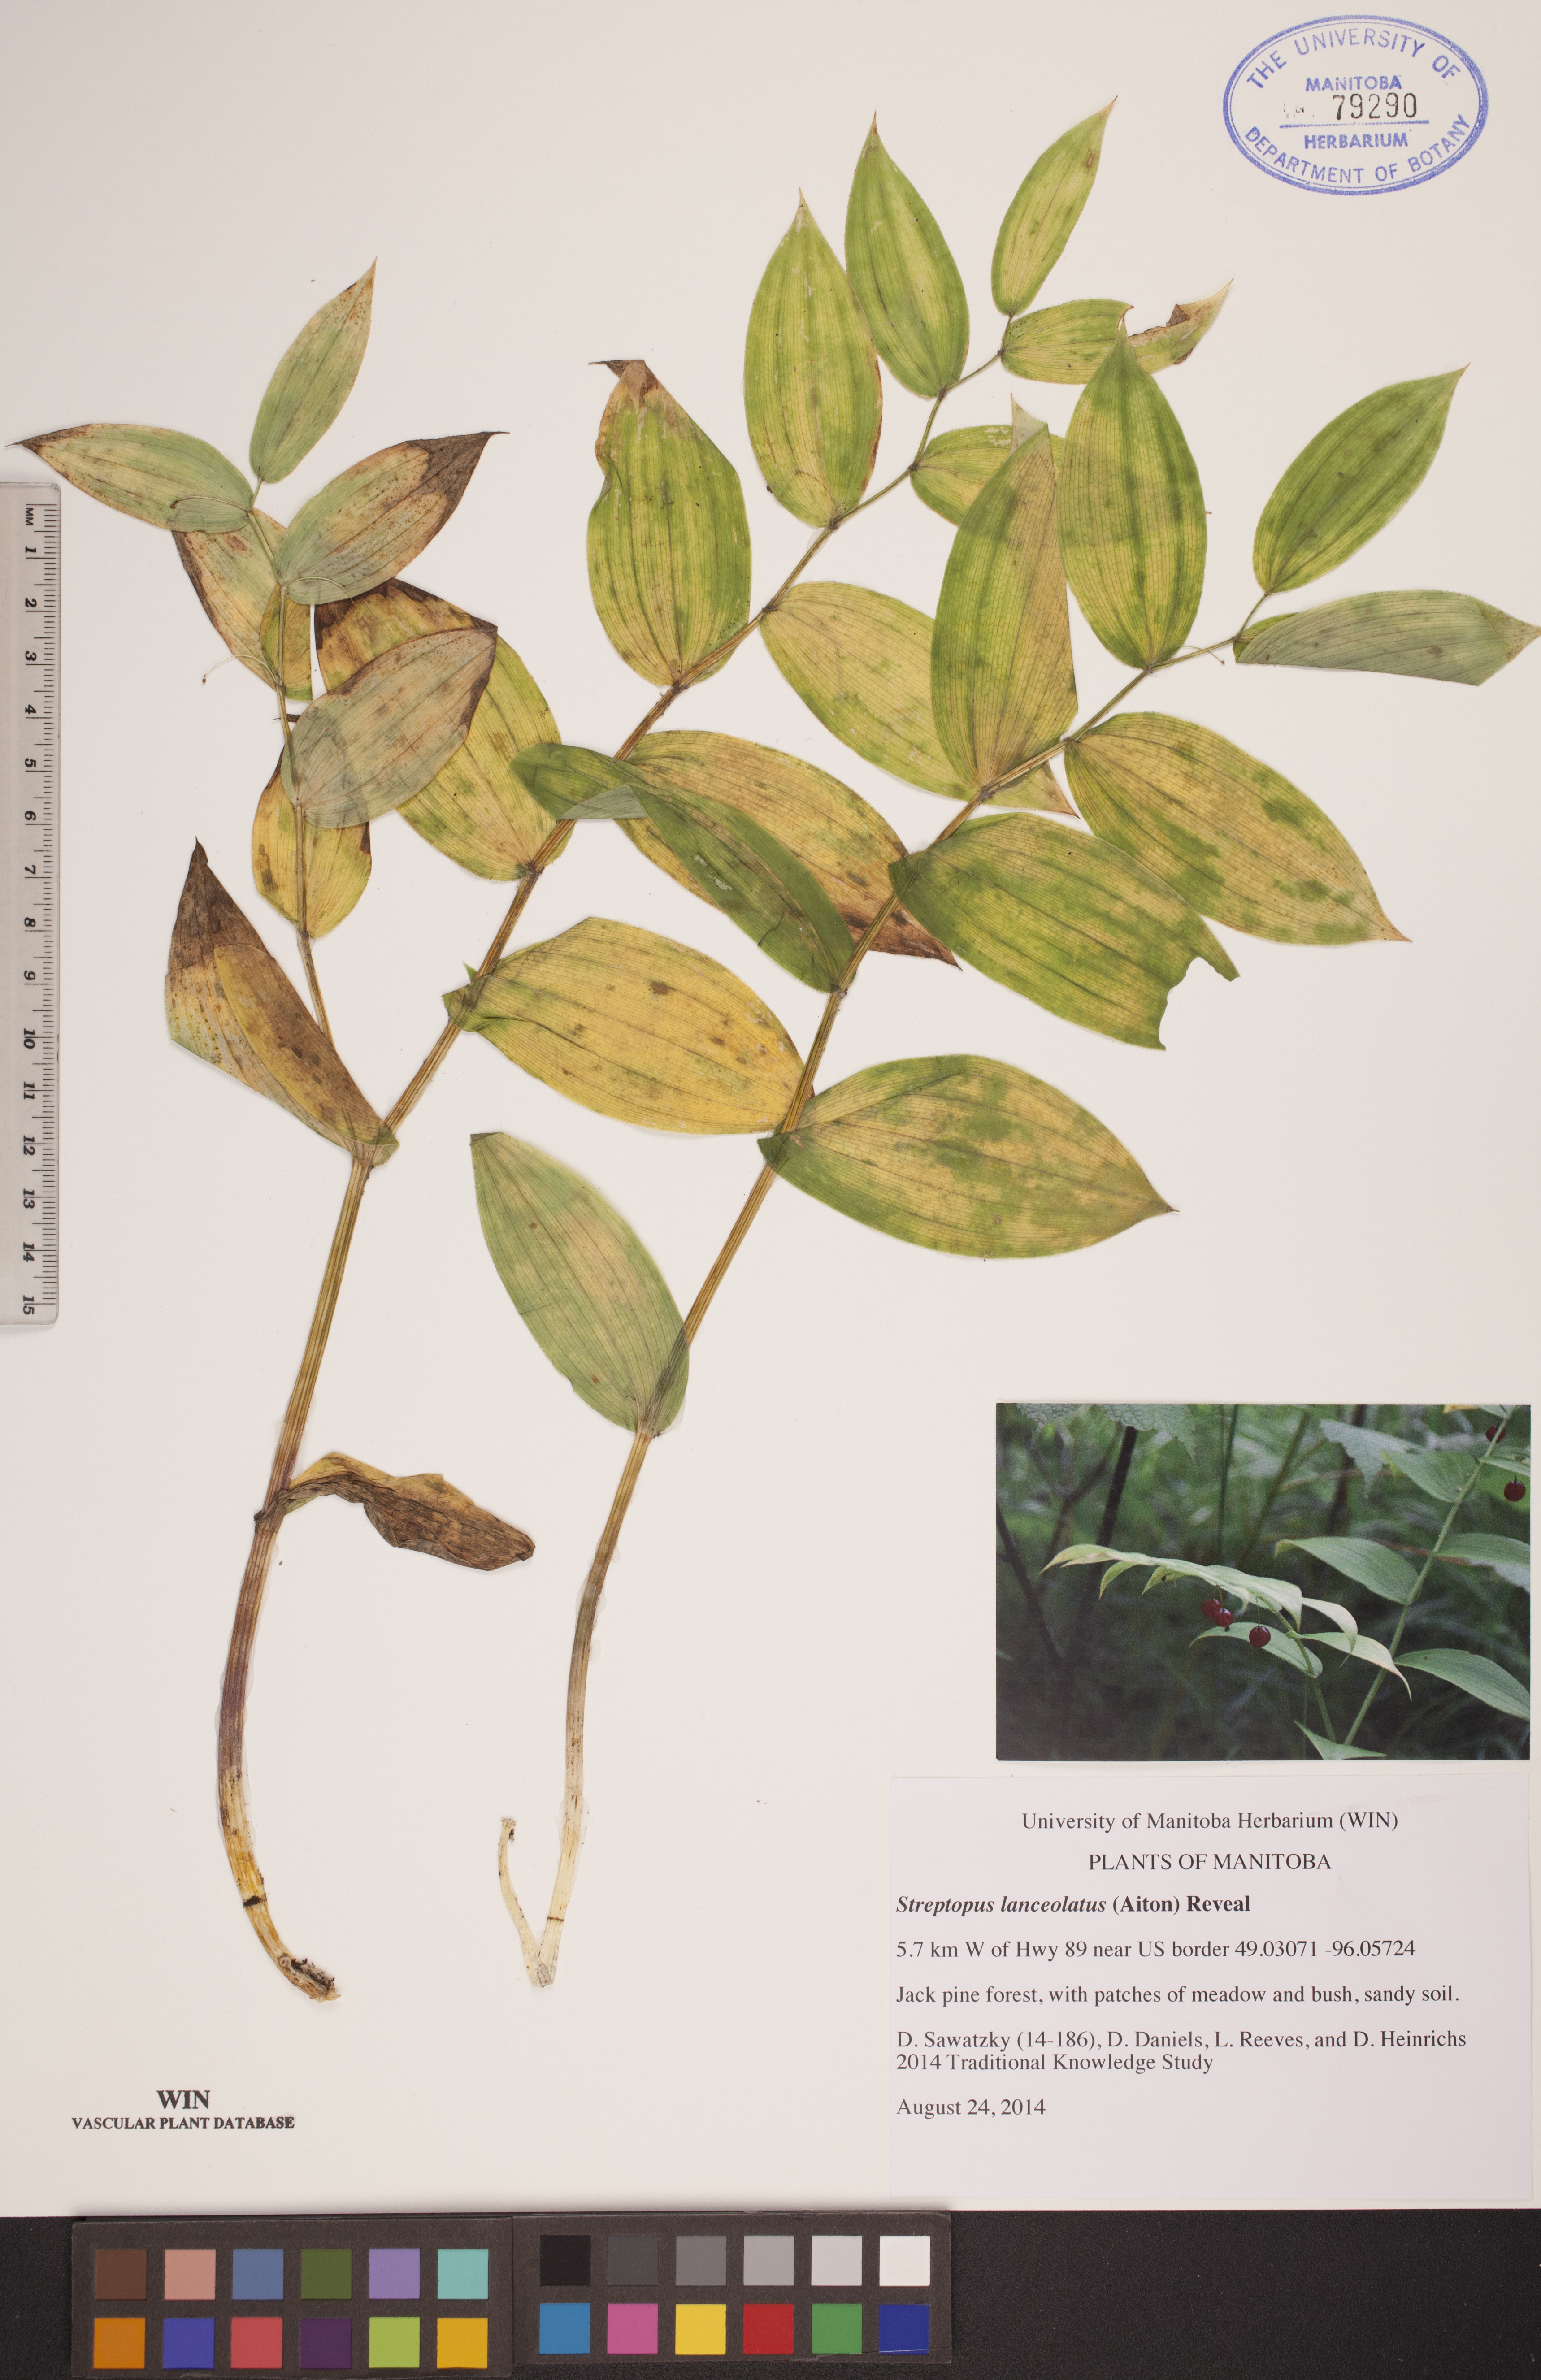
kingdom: Plantae
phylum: Tracheophyta
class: Liliopsida
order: Liliales
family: Liliaceae
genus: Streptopus
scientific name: Streptopus lanceolatus
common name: Rose mandarin
